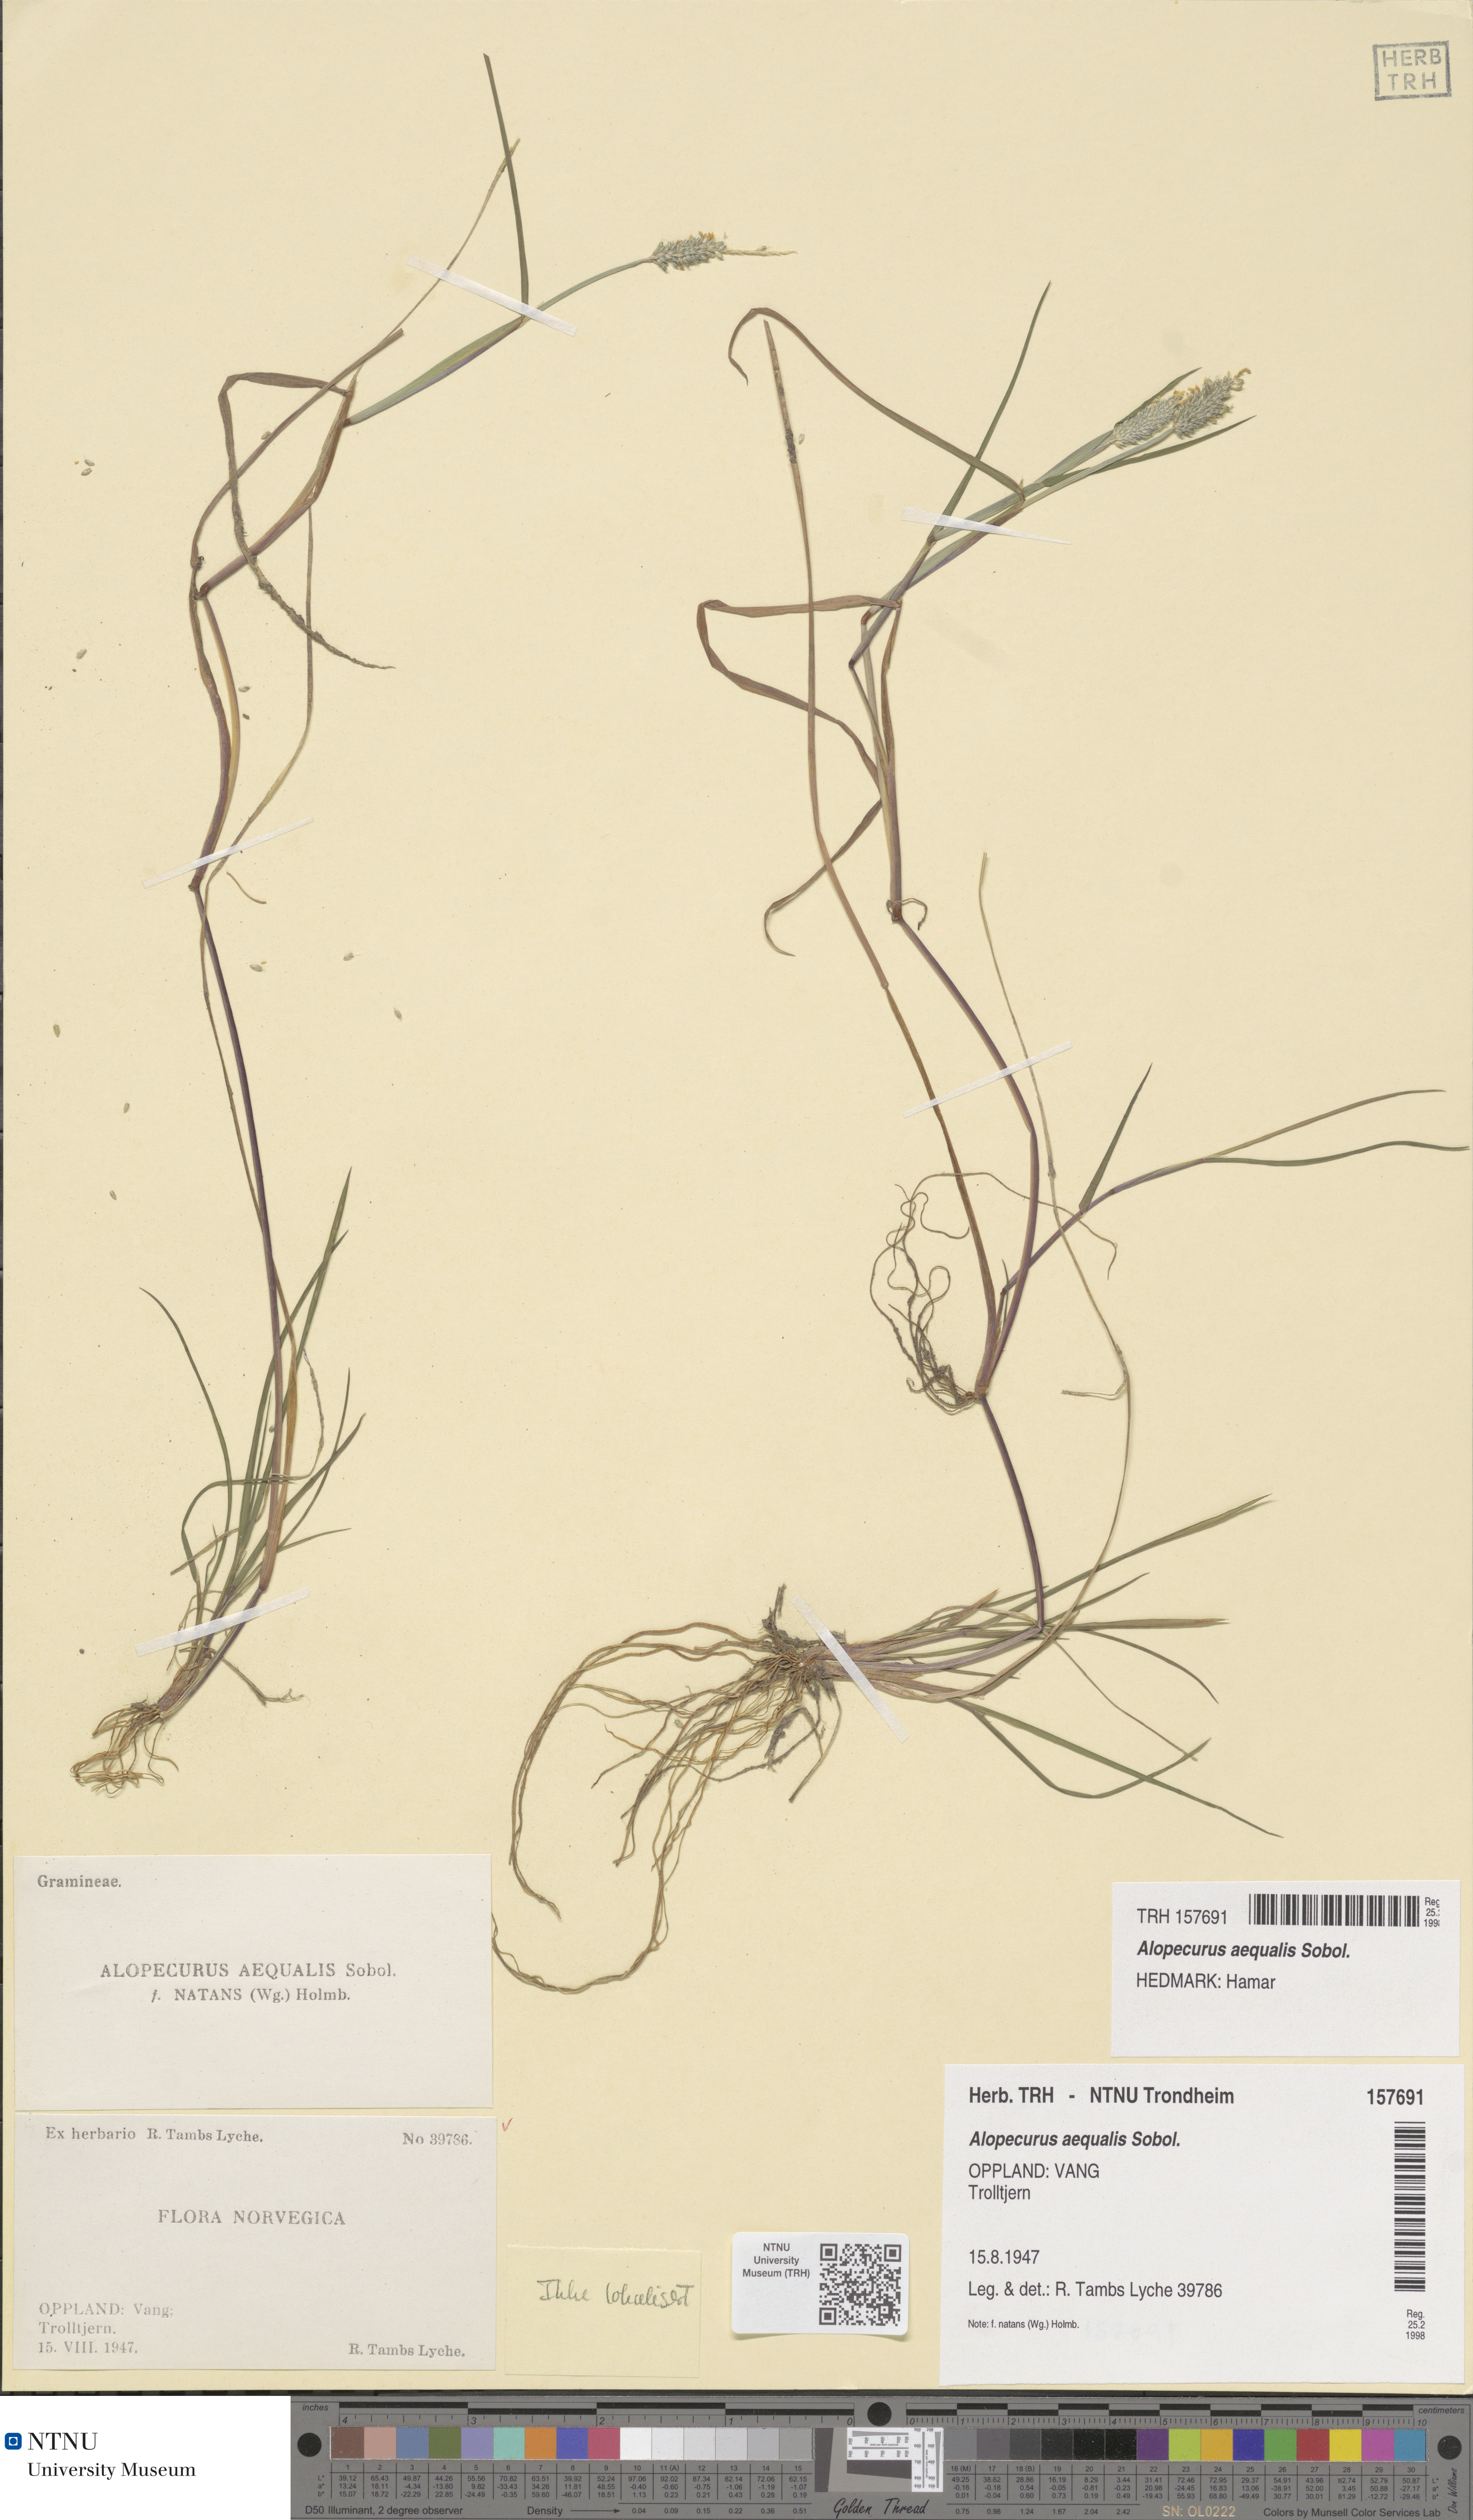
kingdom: Plantae
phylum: Tracheophyta
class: Liliopsida
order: Poales
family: Poaceae
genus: Alopecurus
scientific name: Alopecurus aequalis
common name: Orange foxtail
